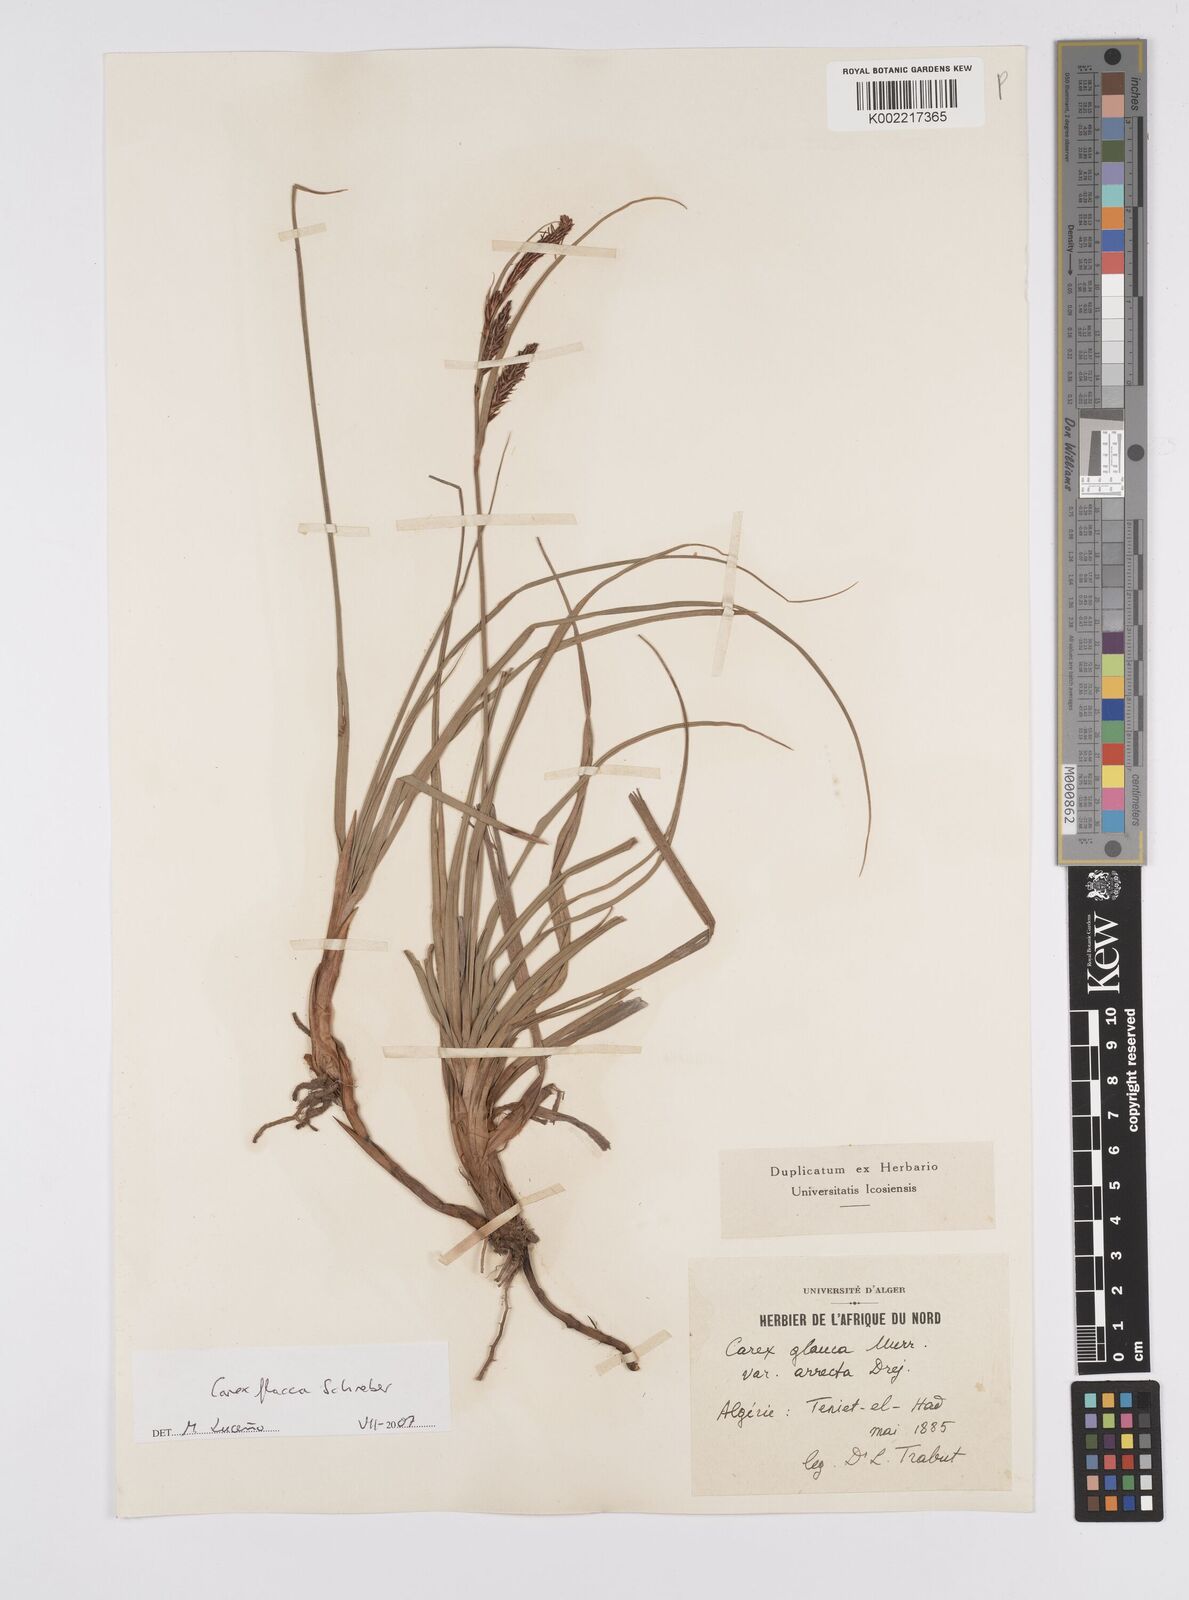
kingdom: Plantae
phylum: Tracheophyta
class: Liliopsida
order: Poales
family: Cyperaceae
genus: Carex
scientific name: Carex flacca
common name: Glaucous sedge
